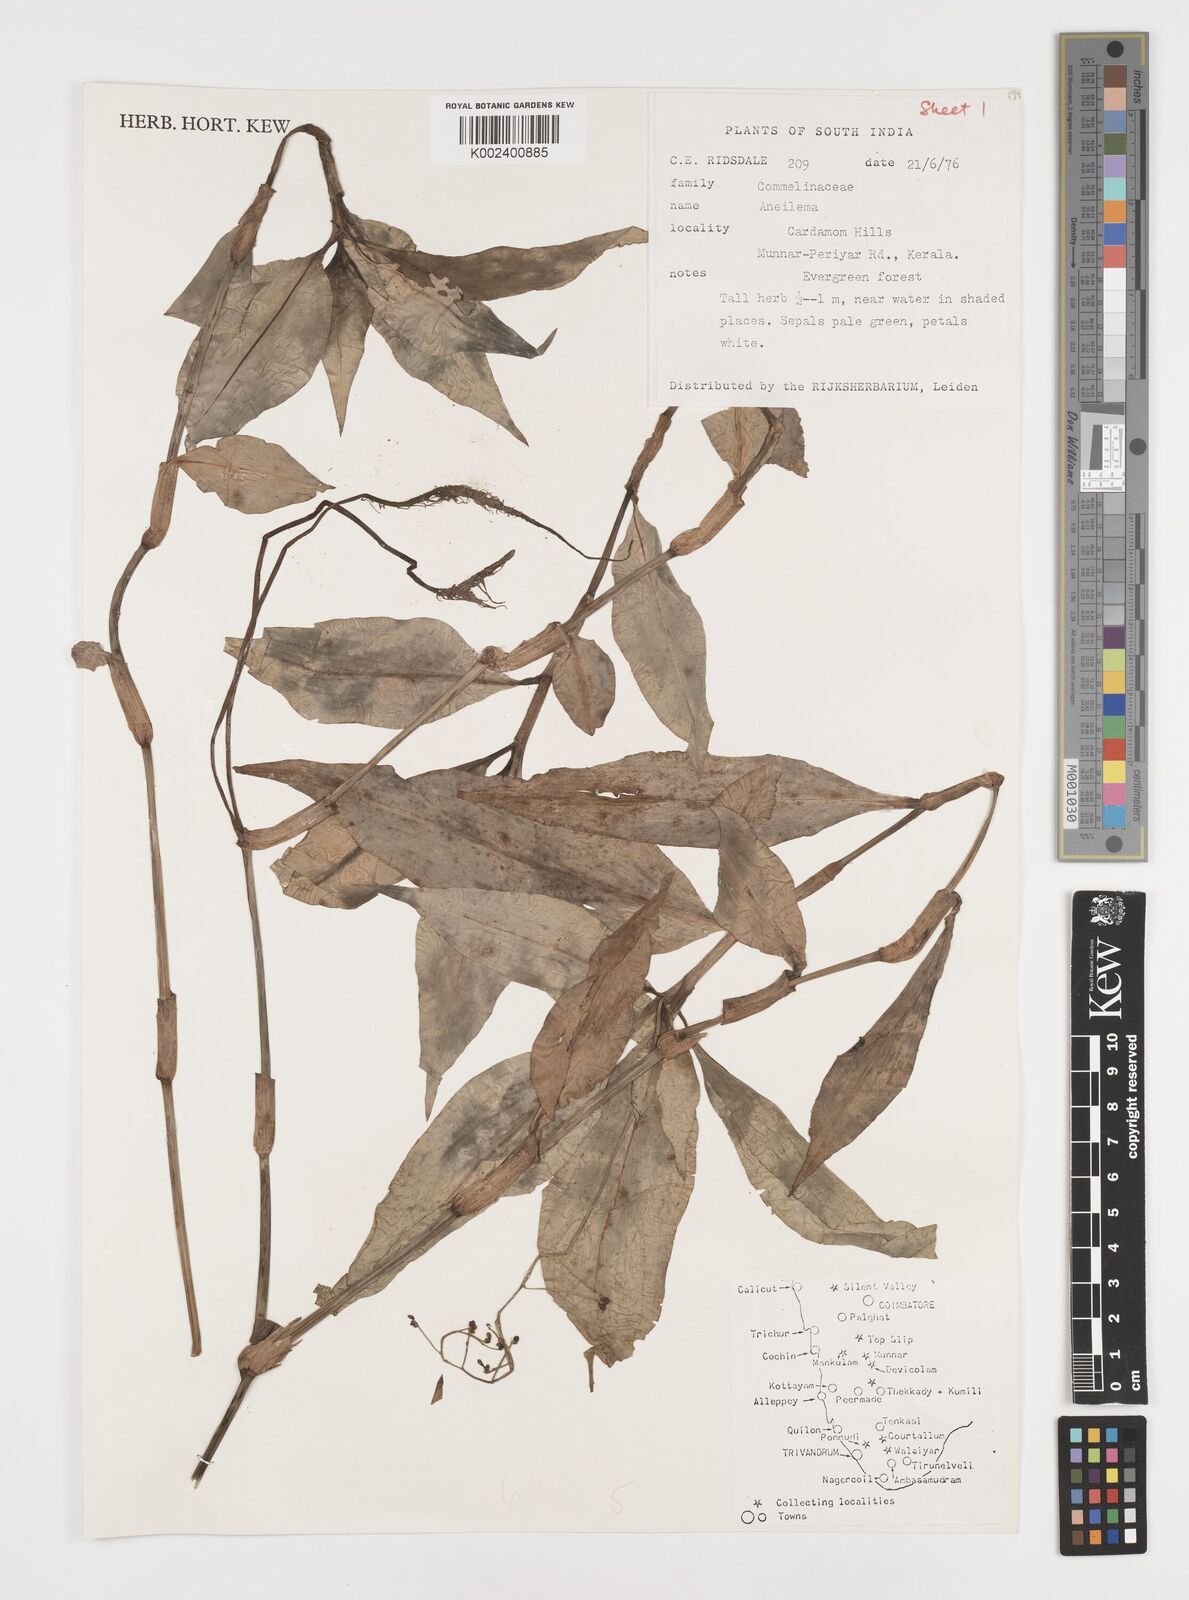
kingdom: Plantae
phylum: Tracheophyta
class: Liliopsida
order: Commelinales
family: Commelinaceae
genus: Dictyospermum
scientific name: Dictyospermum
